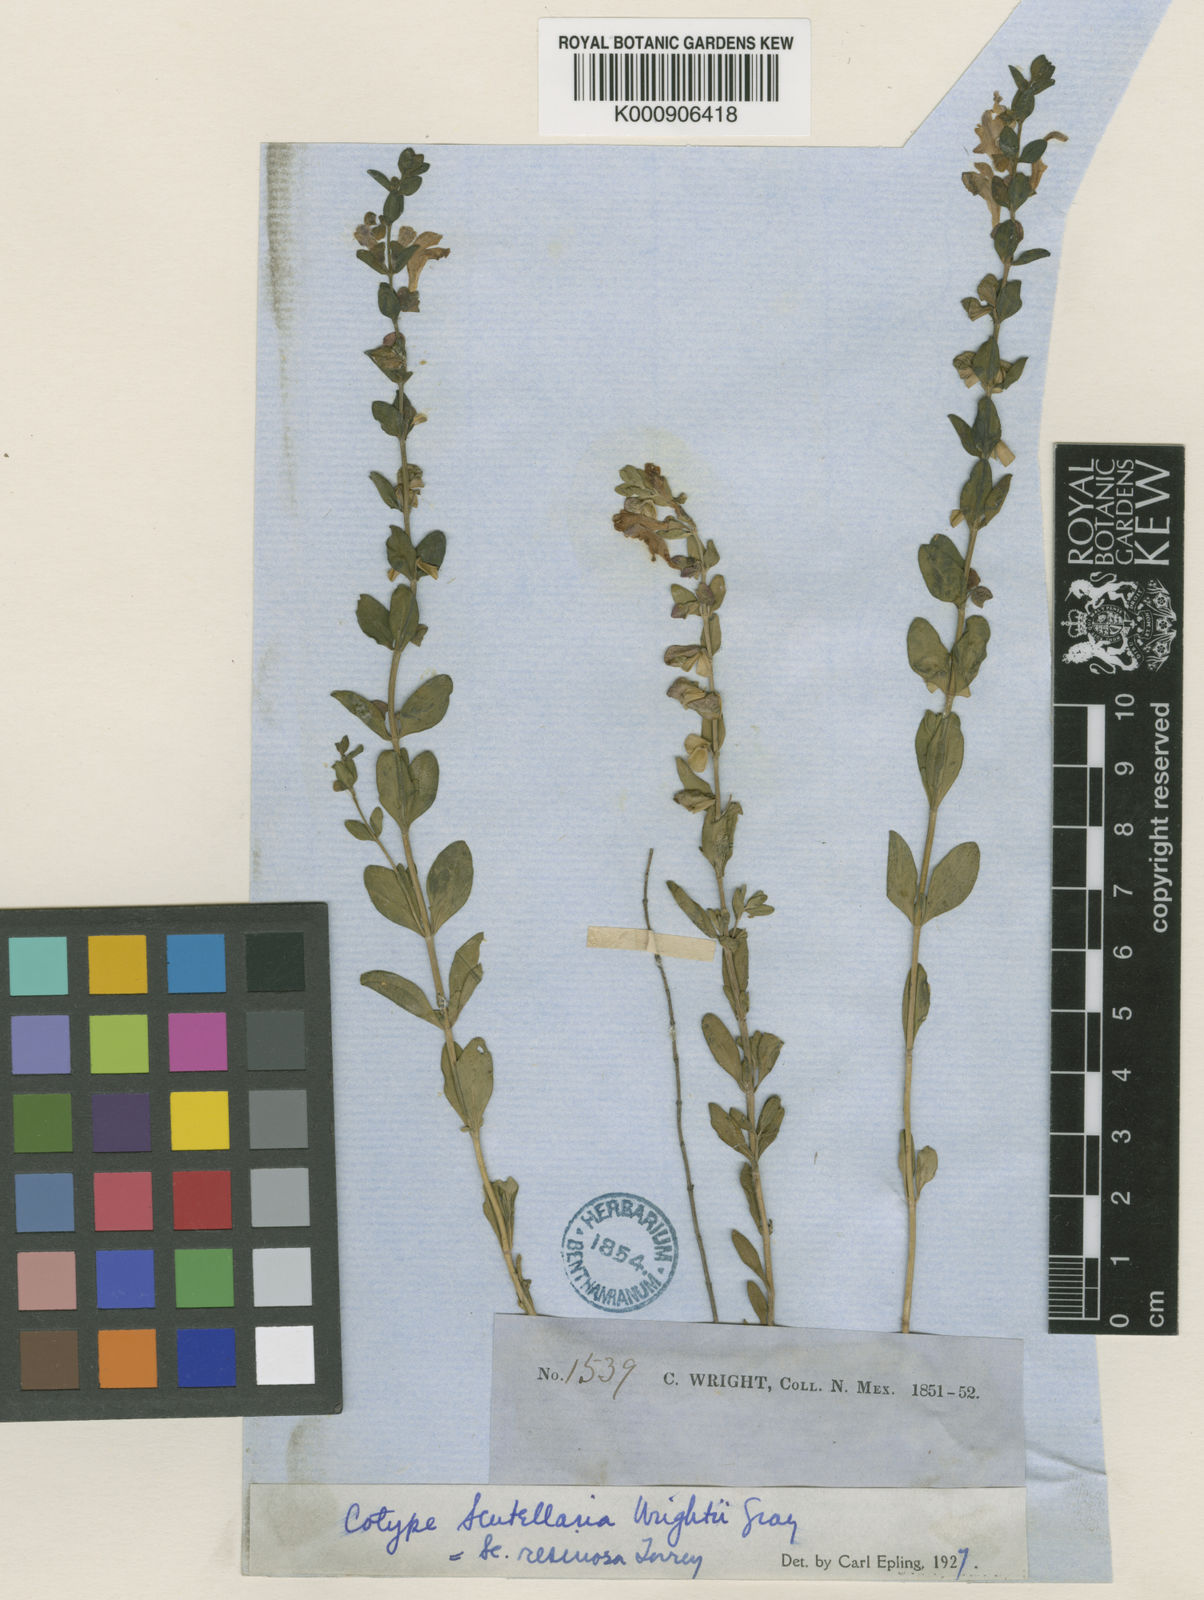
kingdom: Plantae
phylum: Tracheophyta
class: Magnoliopsida
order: Lamiales
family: Lamiaceae
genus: Scutellaria
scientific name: Scutellaria wrightii
